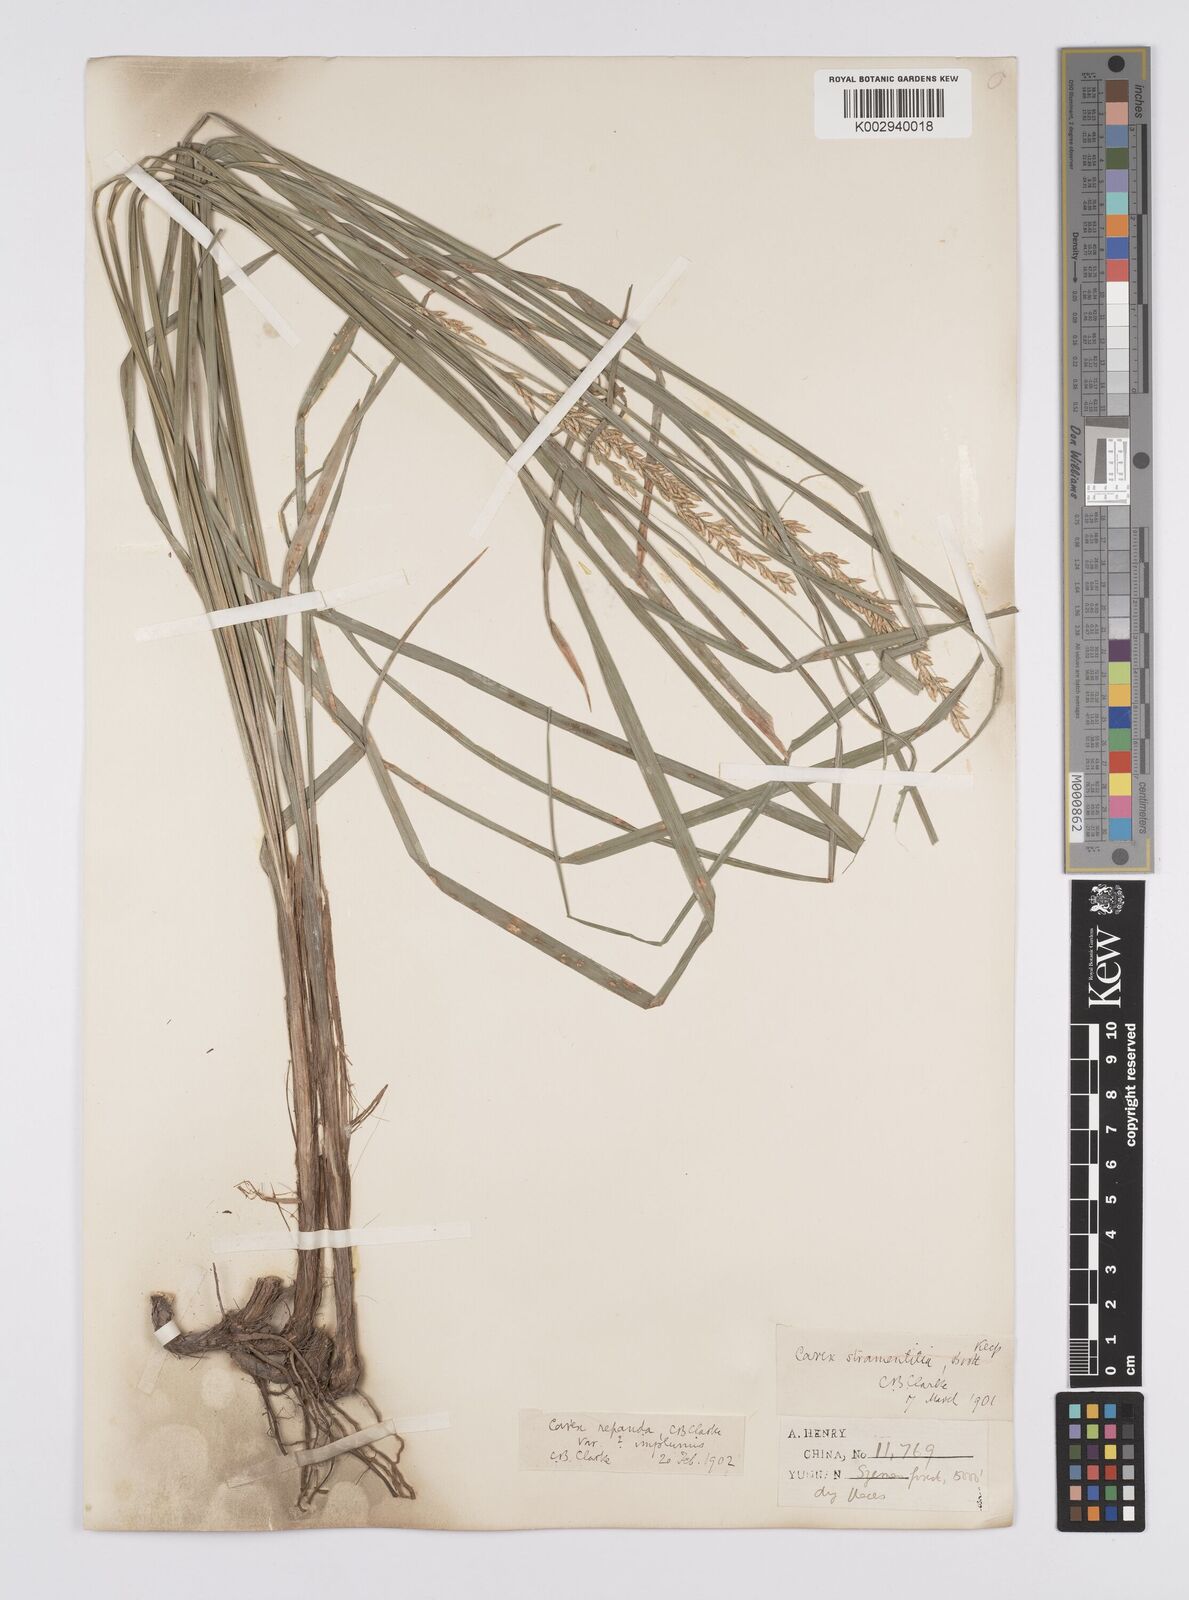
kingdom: Plantae
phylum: Tracheophyta
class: Liliopsida
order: Poales
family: Cyperaceae
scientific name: Cyperaceae
